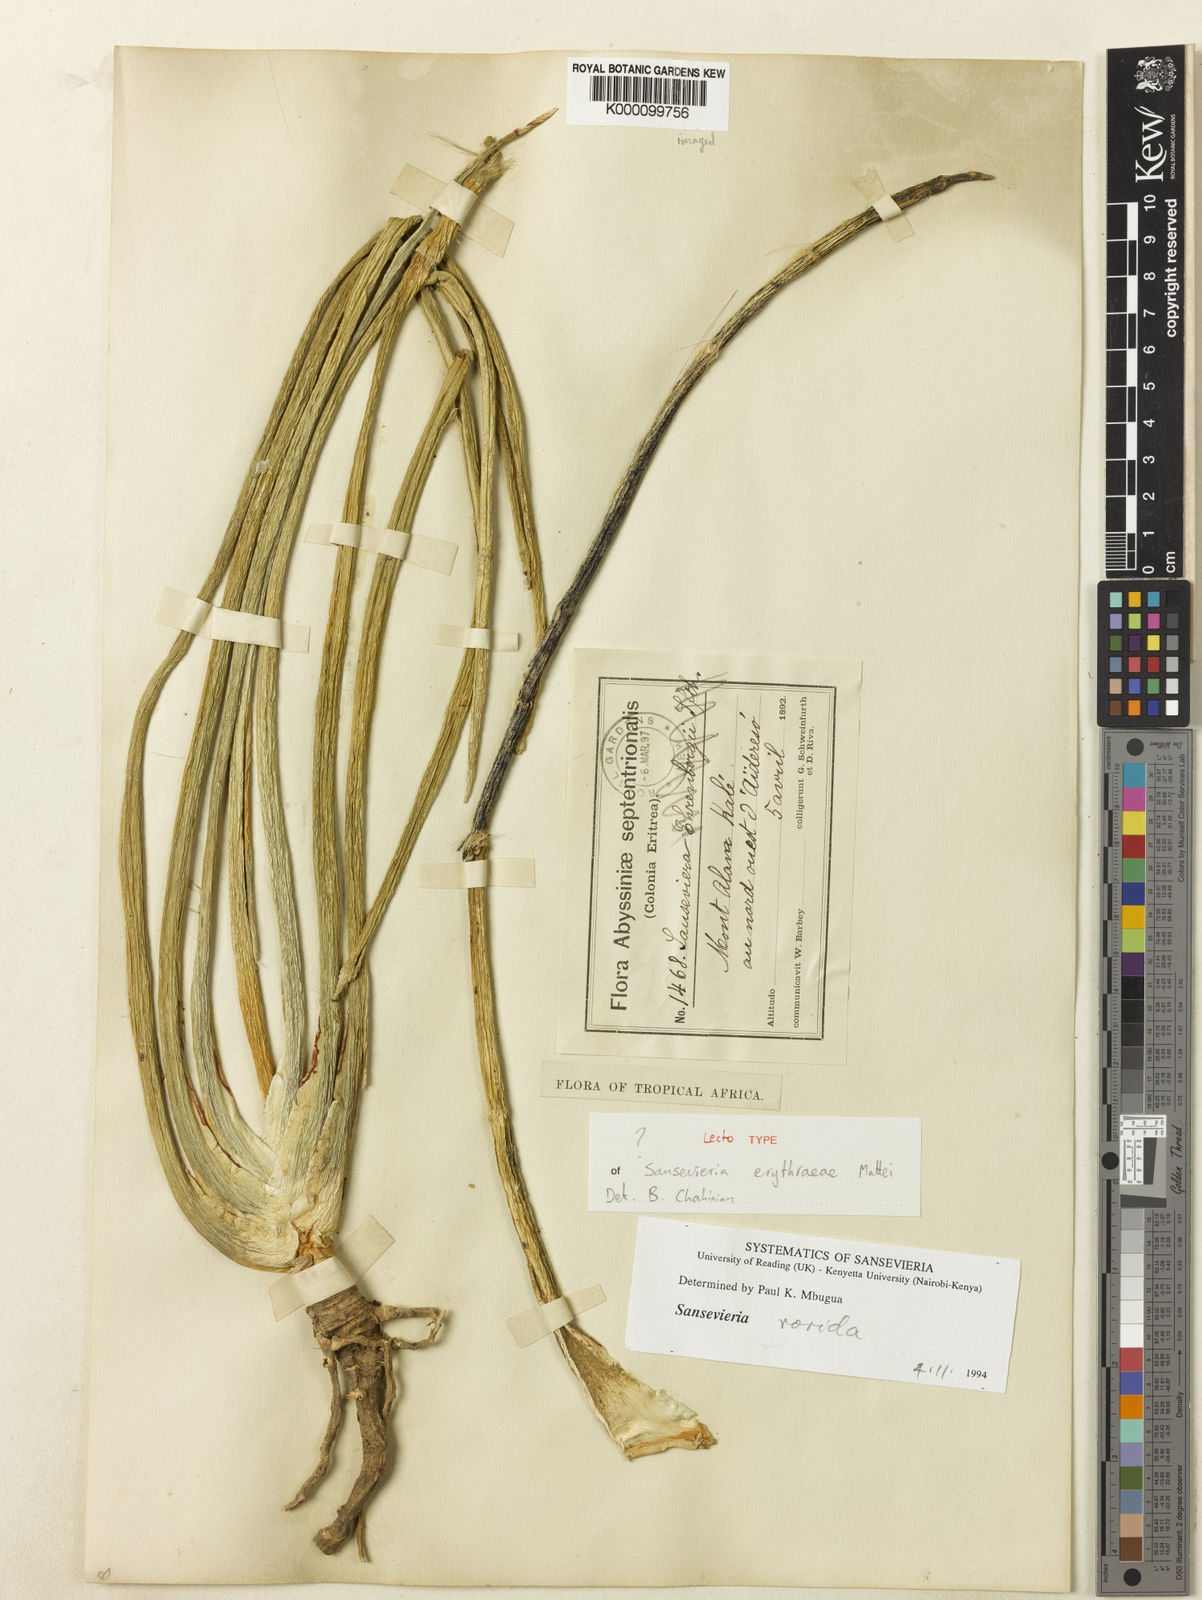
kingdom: Plantae
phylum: Tracheophyta
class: Liliopsida
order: Asparagales
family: Asparagaceae
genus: Dracaena
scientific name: Dracaena erythraeae
